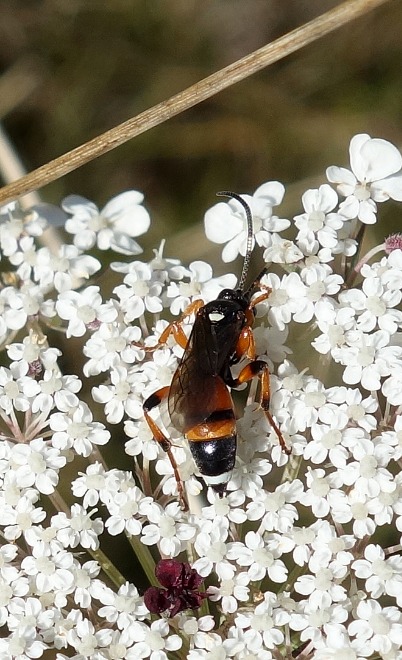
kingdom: Animalia
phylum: Arthropoda
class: Insecta
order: Hymenoptera
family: Ichneumonidae
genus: Ichneumon
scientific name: Ichneumon sarcitorius
